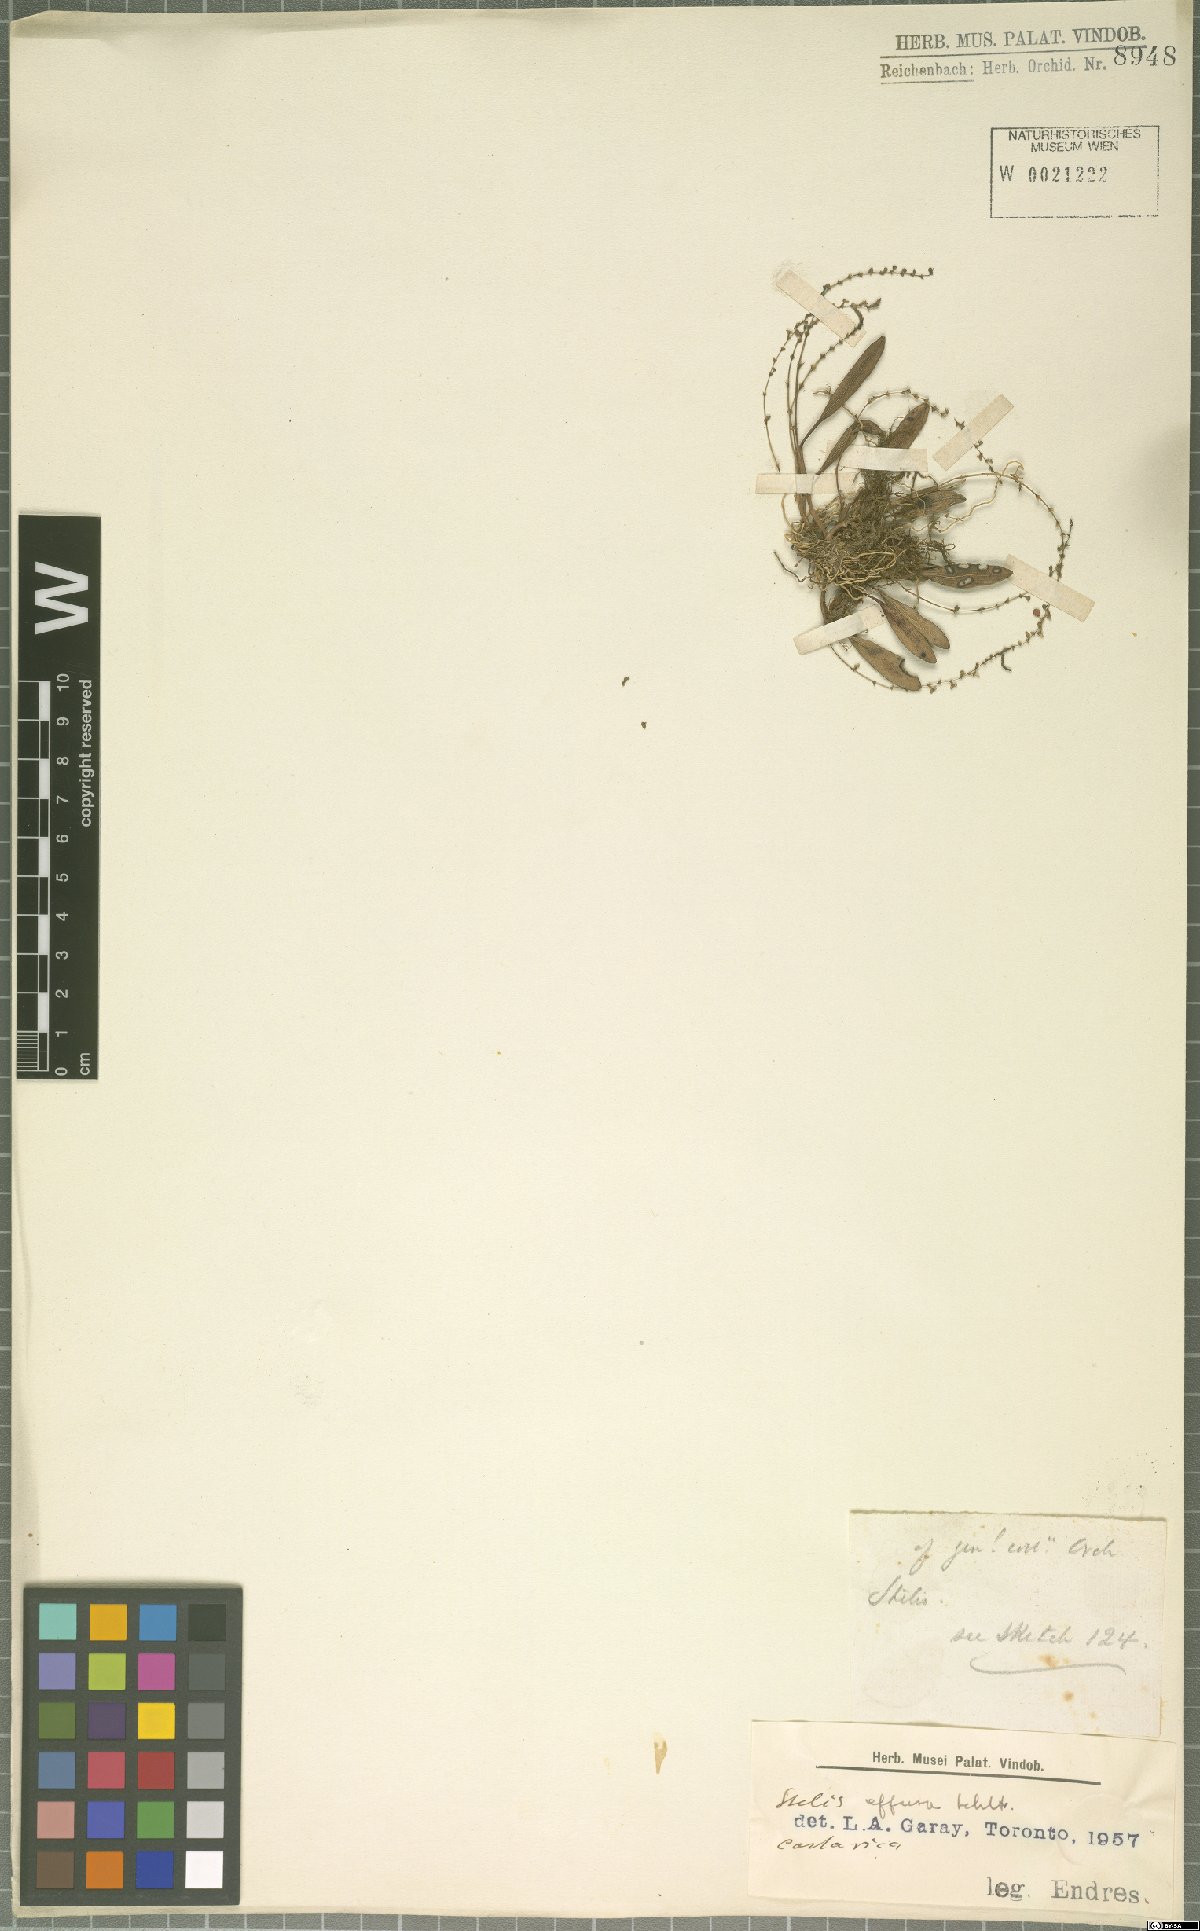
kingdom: Plantae
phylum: Tracheophyta
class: Liliopsida
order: Asparagales
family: Orchidaceae
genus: Stelis
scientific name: Stelis effusa
